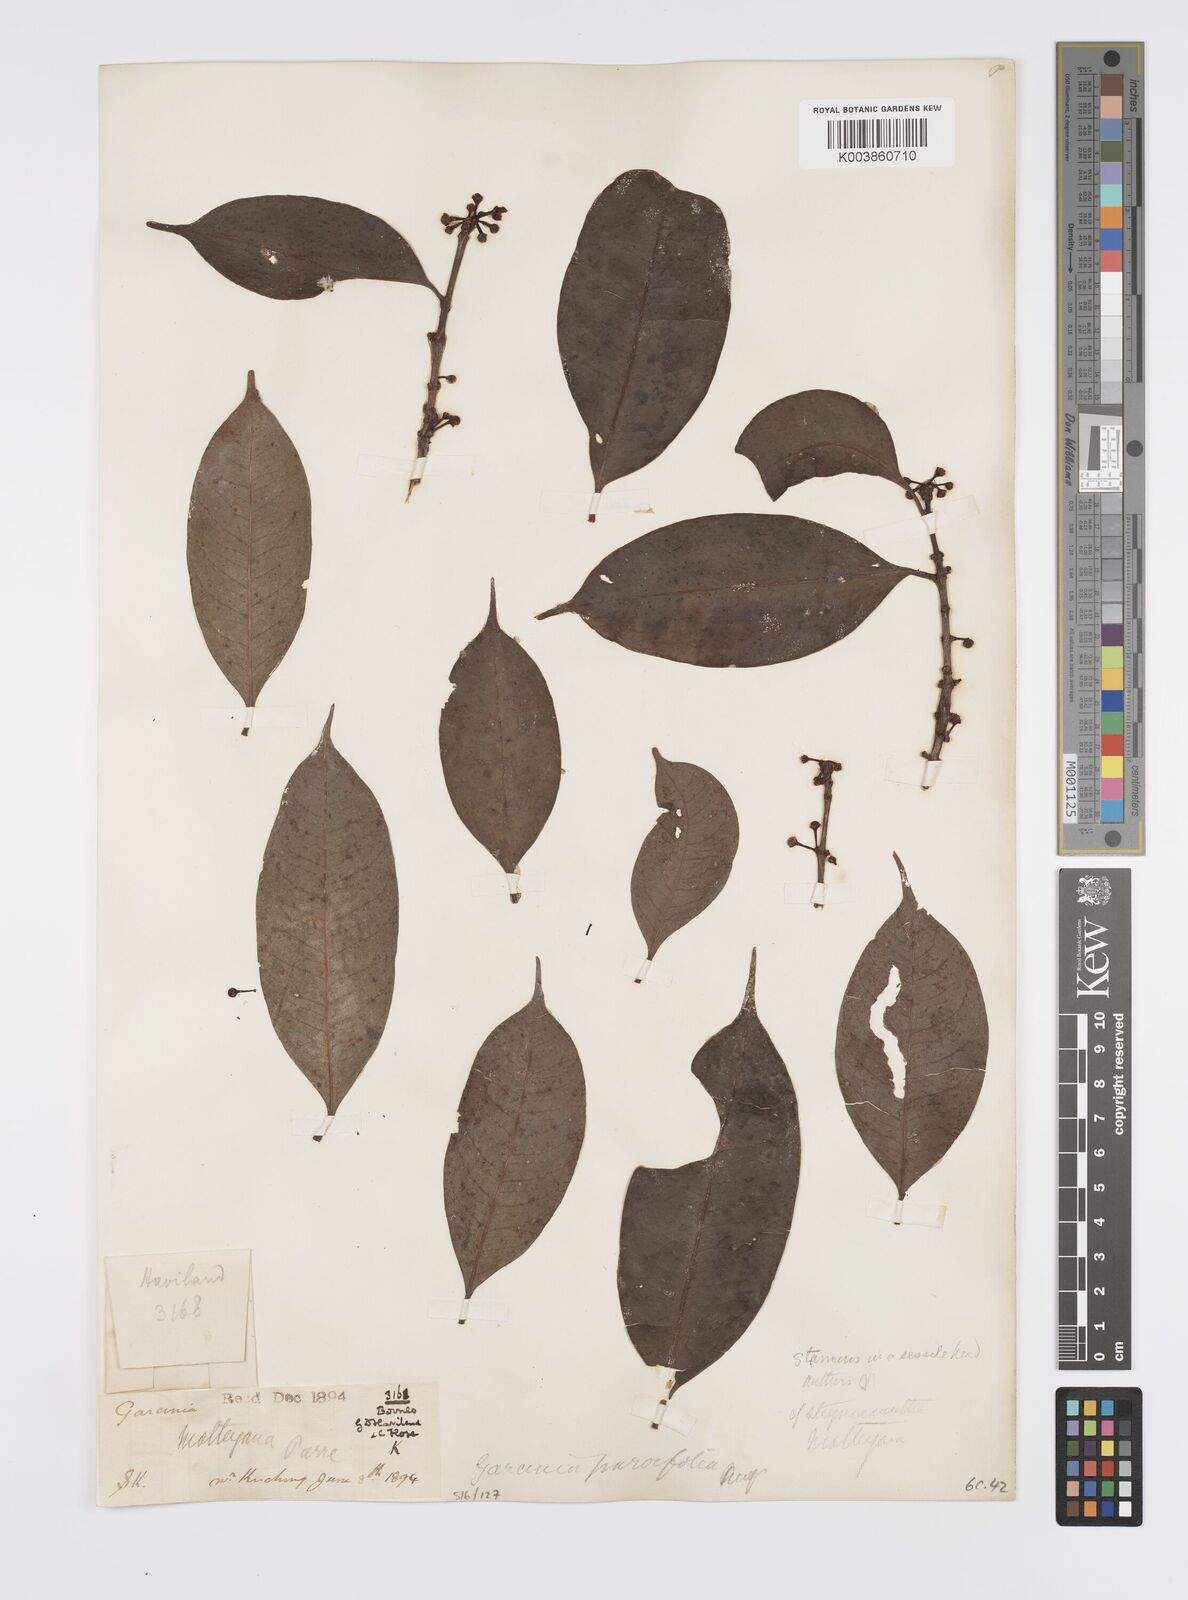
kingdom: Plantae
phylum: Tracheophyta
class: Magnoliopsida
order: Malpighiales
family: Clusiaceae
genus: Garcinia
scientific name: Garcinia parvifolia
